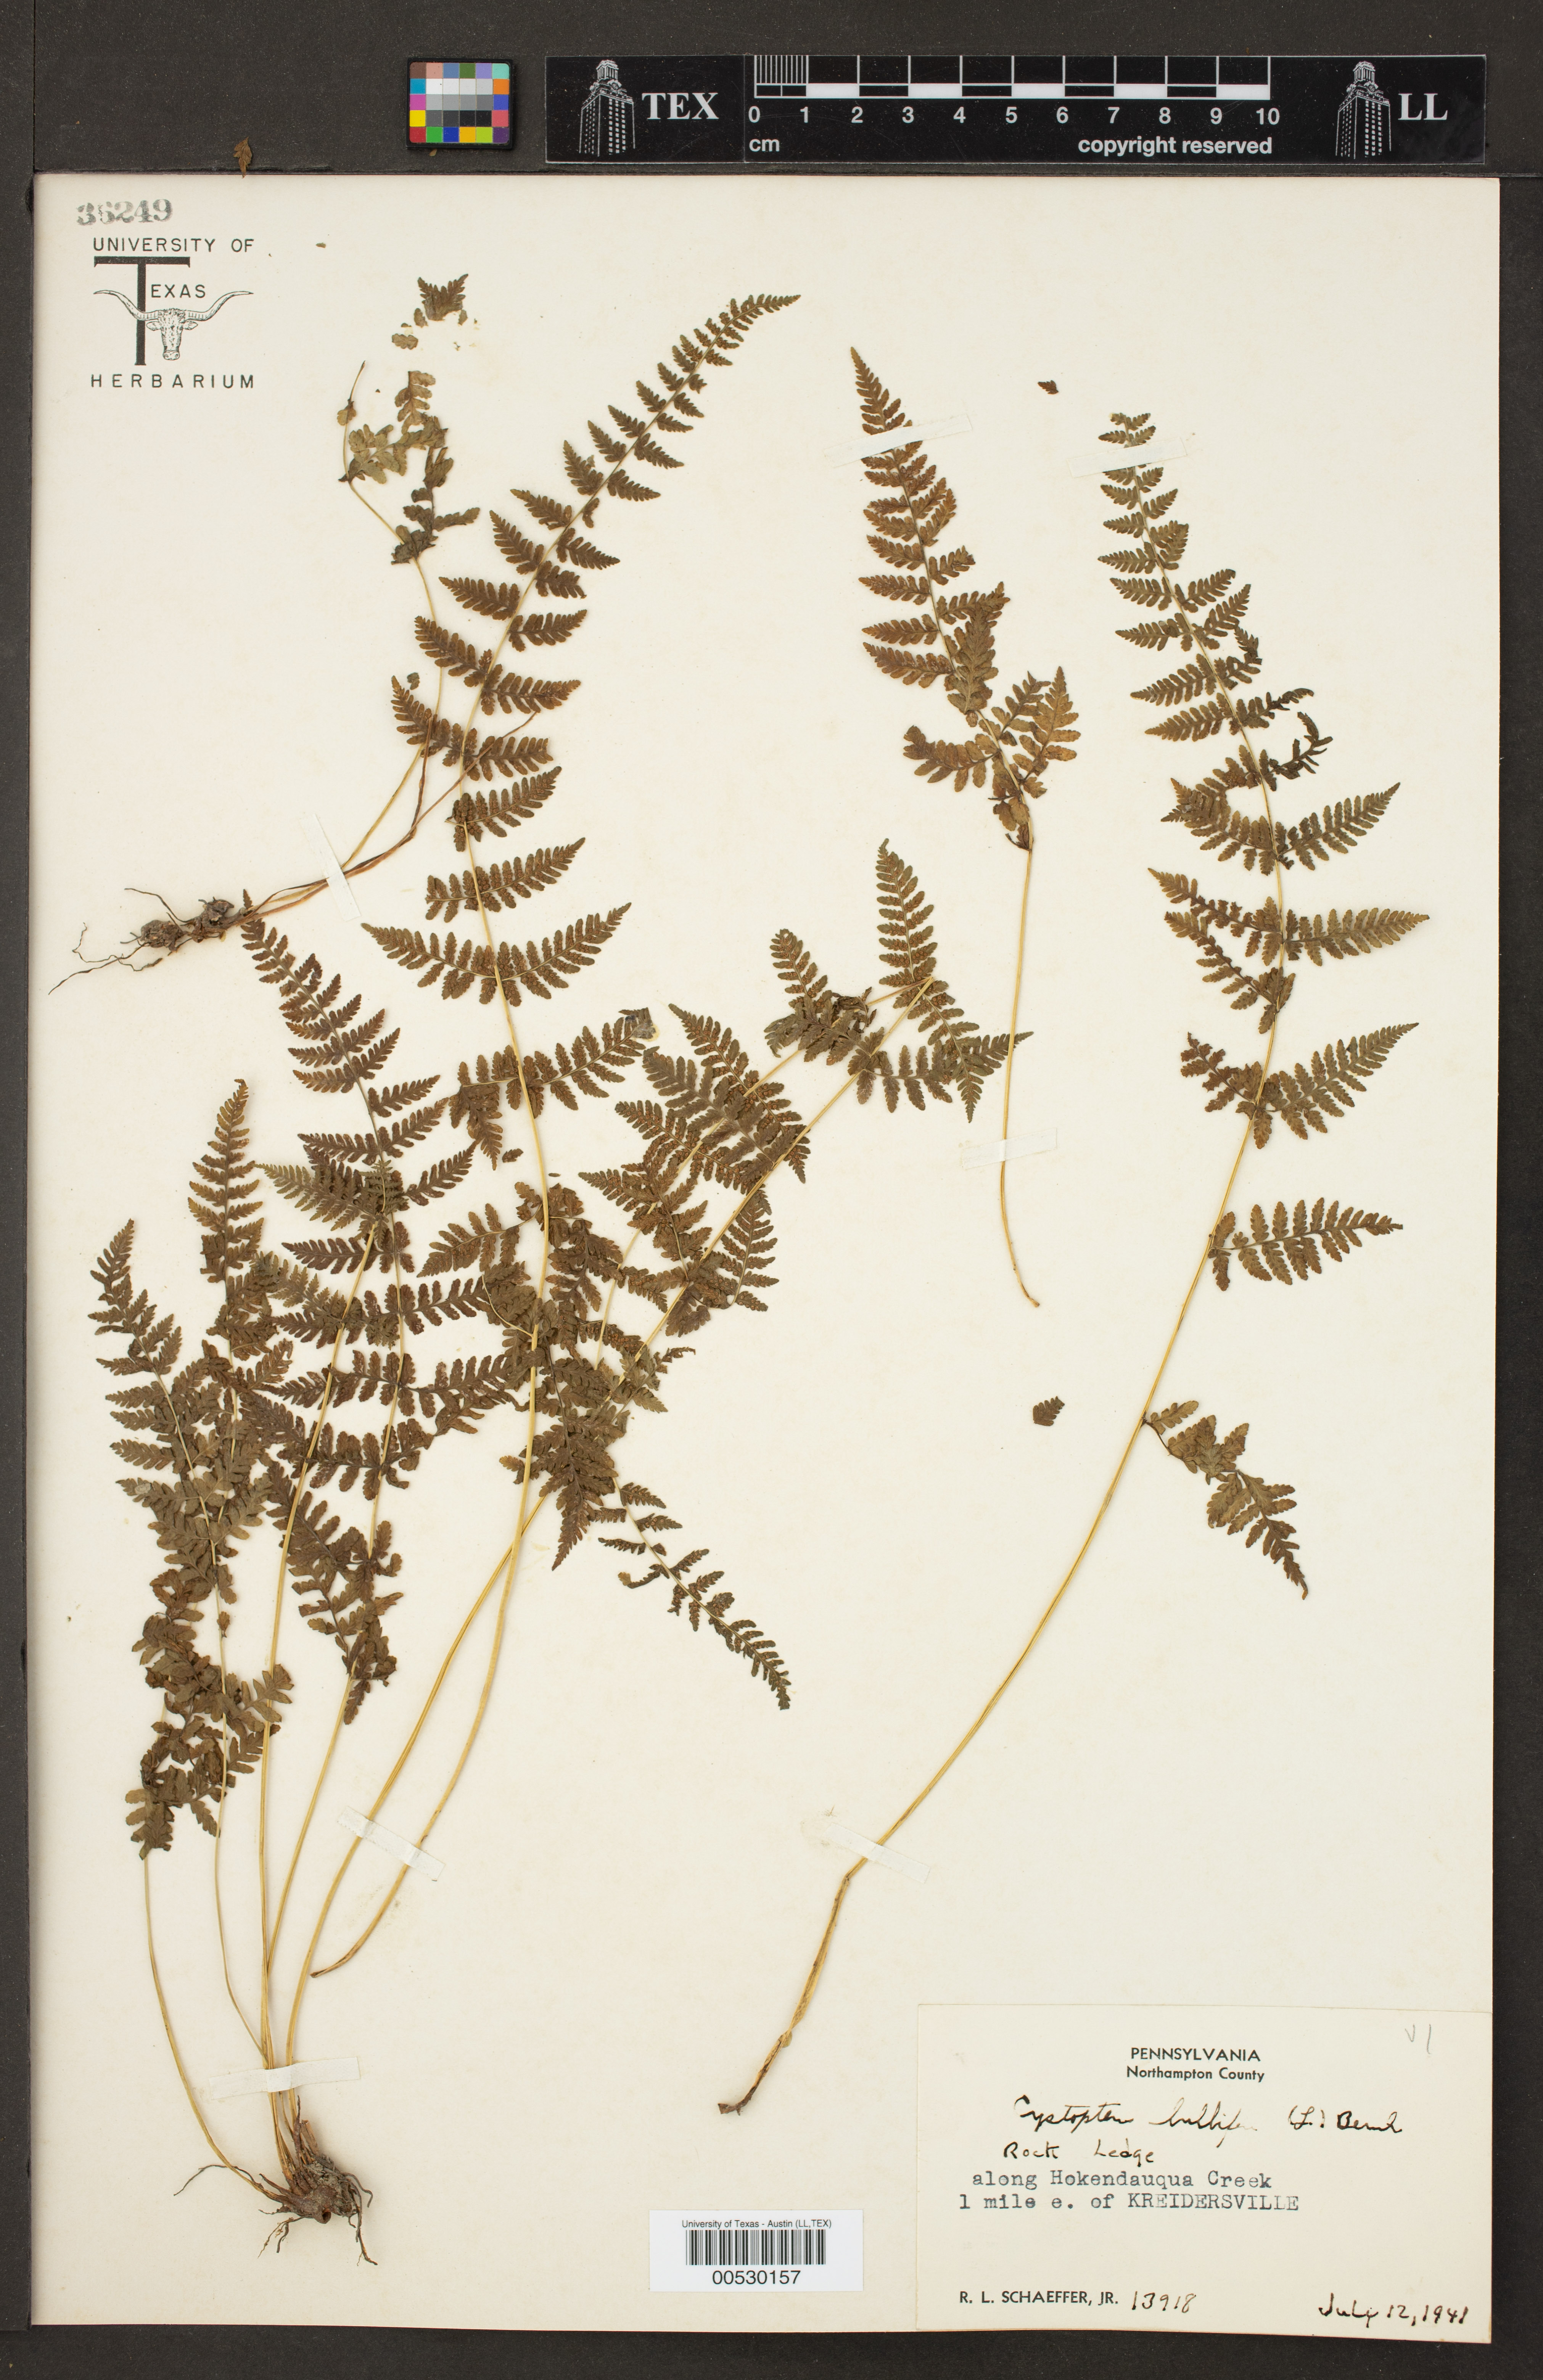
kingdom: Plantae
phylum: Tracheophyta
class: Polypodiopsida
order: Polypodiales
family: Cystopteridaceae
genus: Cystopteris
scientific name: Cystopteris bulbifera
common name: Bulblet bladder fern
